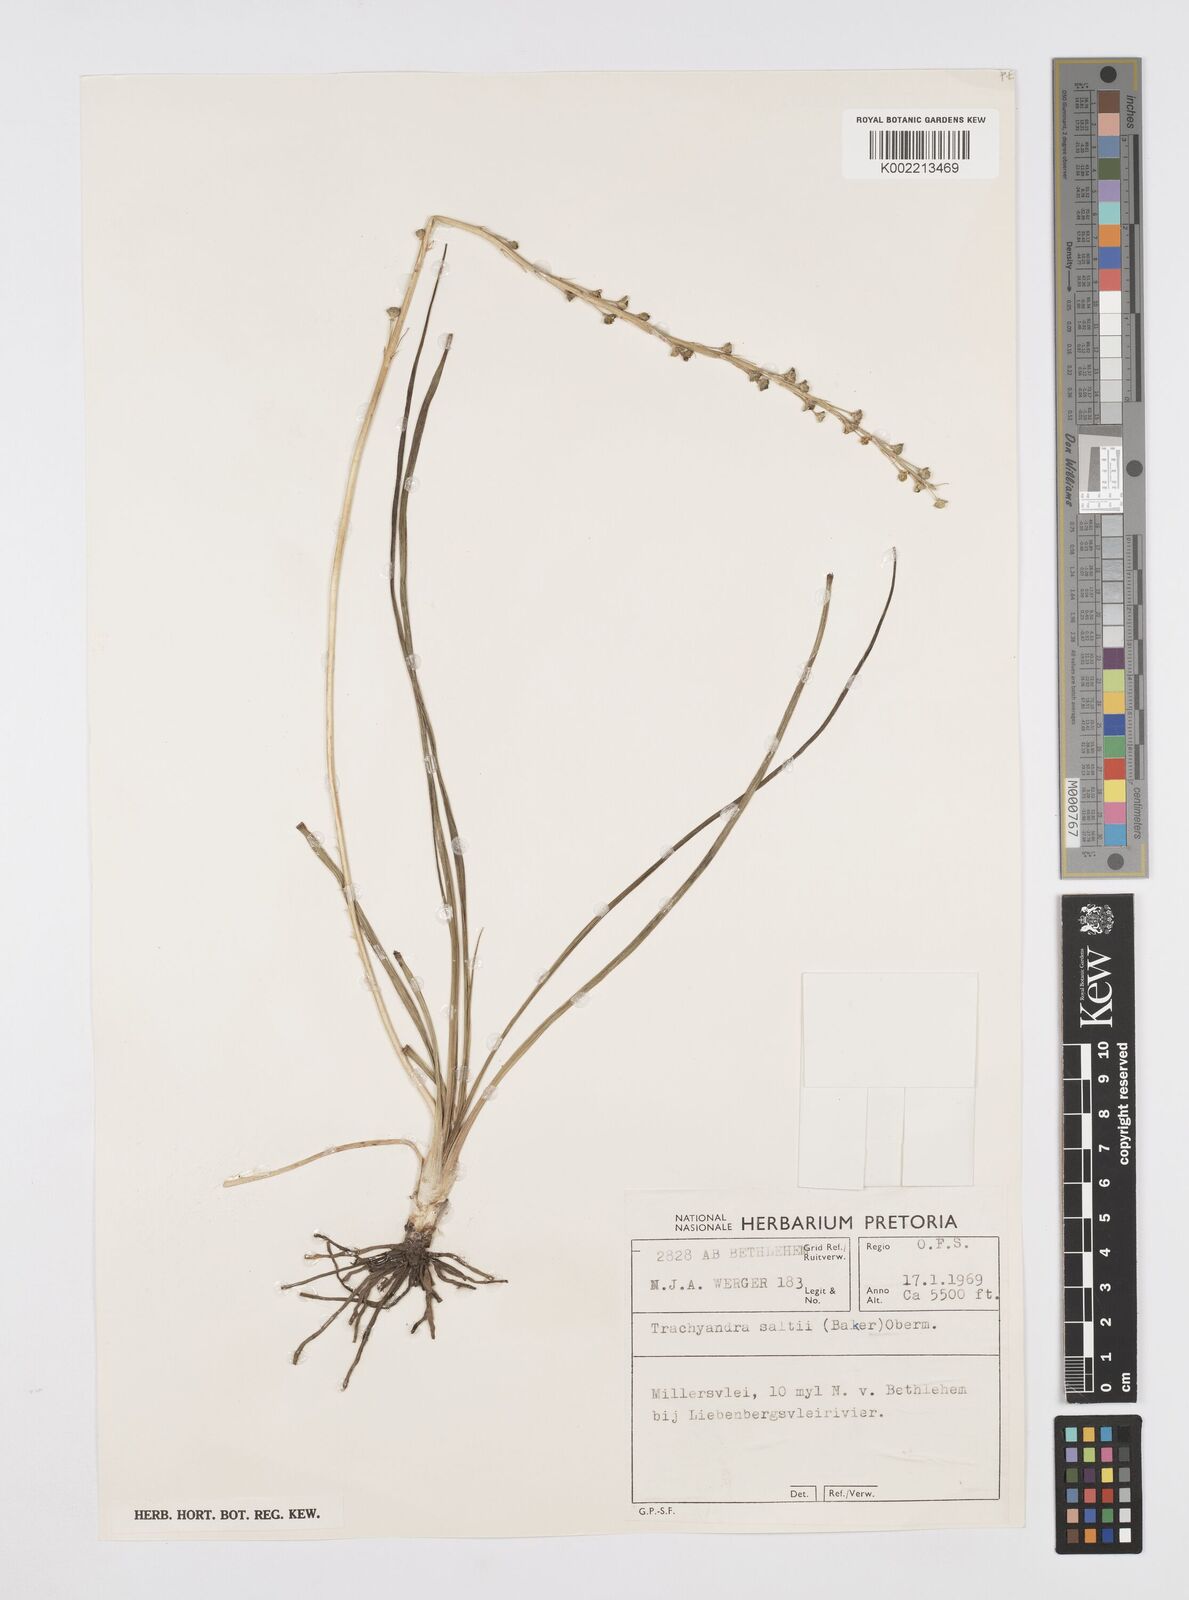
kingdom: Plantae
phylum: Tracheophyta
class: Liliopsida
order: Asparagales
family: Asphodelaceae
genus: Trachyandra
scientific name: Trachyandra saltii
